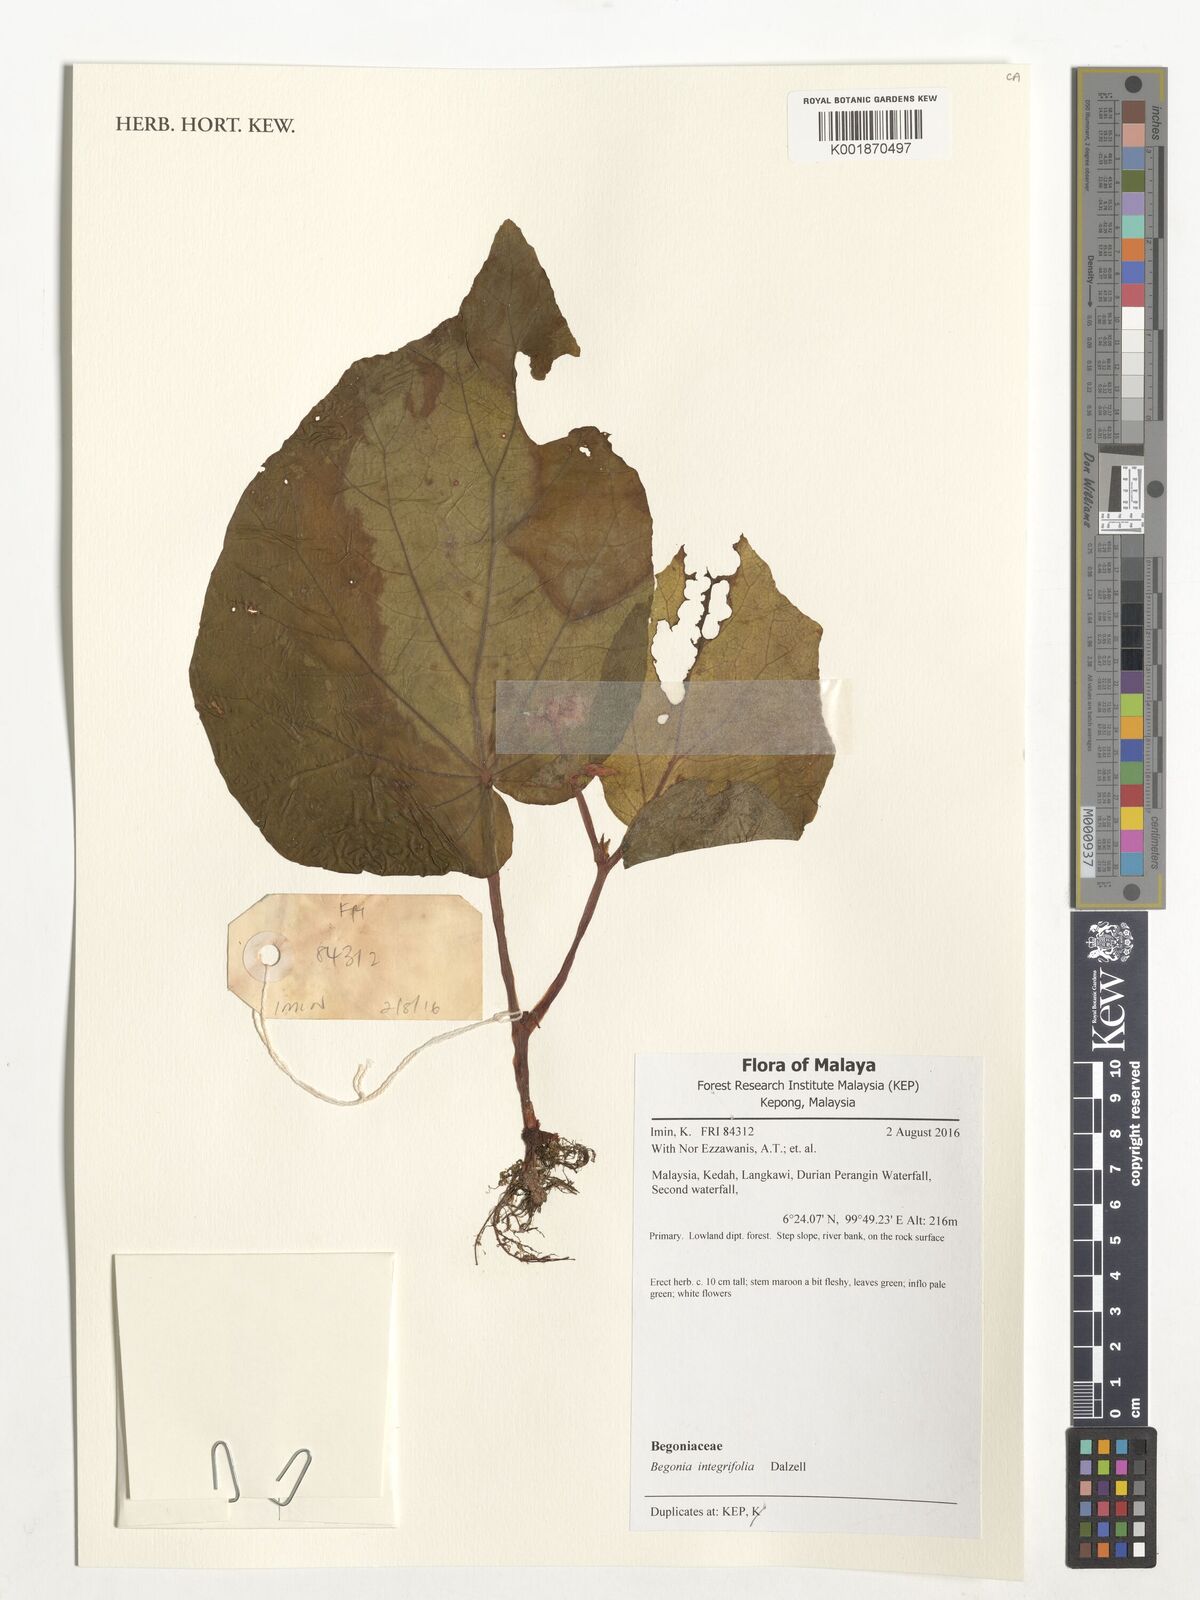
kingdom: Plantae
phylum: Tracheophyta
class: Magnoliopsida
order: Cucurbitales
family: Begoniaceae
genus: Begonia
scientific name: Begonia integrifolia
